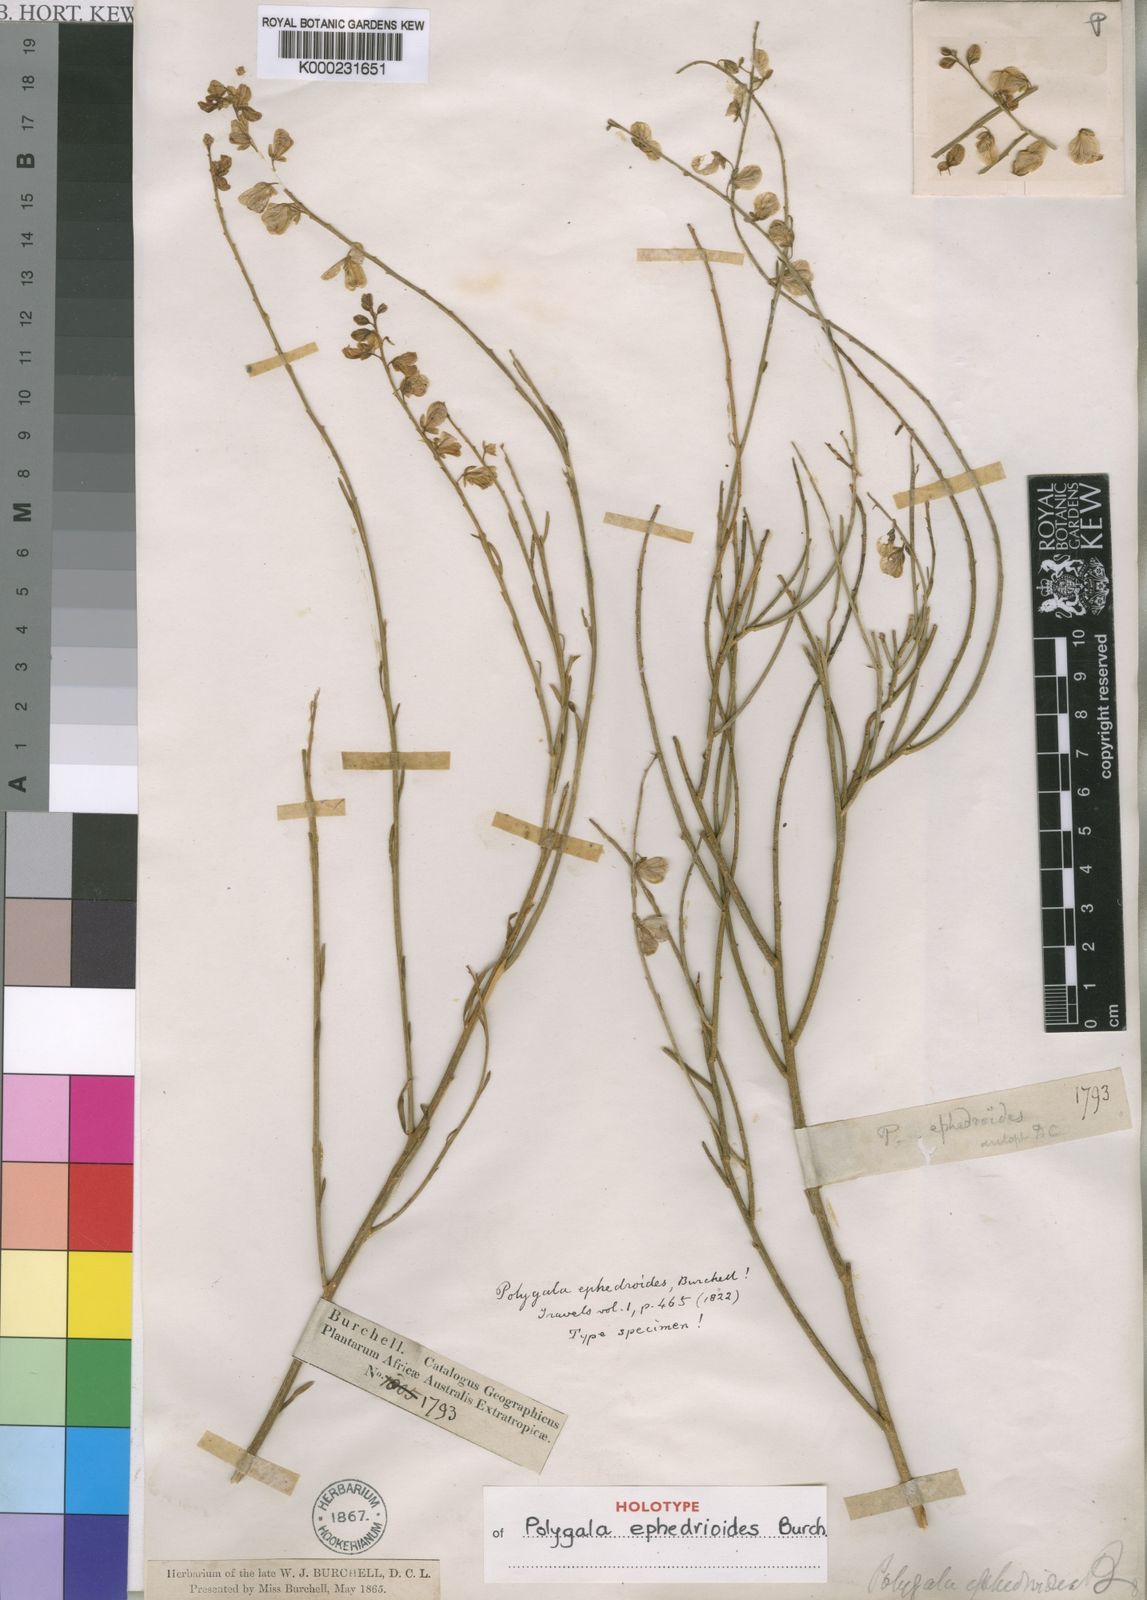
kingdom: Plantae
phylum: Tracheophyta
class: Magnoliopsida
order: Fabales
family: Polygalaceae
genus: Polygala
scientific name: Polygala ephedroides
